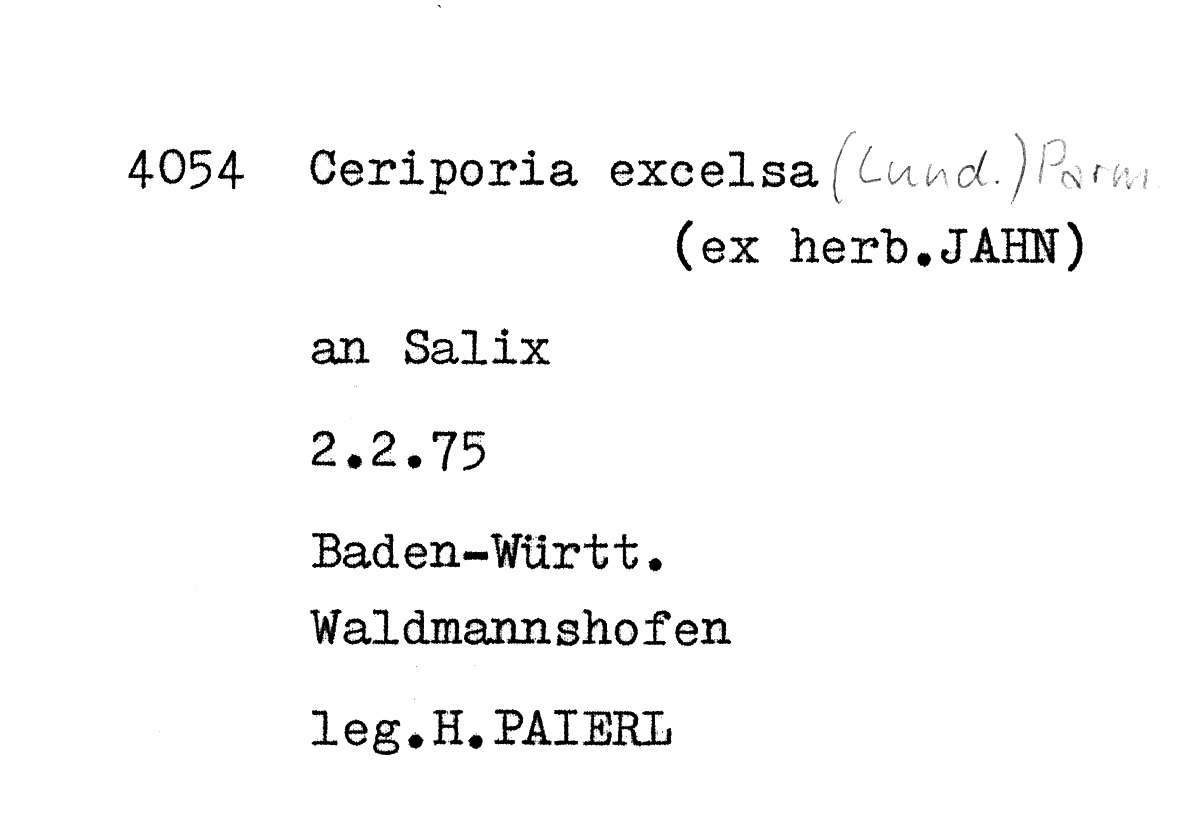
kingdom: Fungi
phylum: Basidiomycota
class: Agaricomycetes
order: Polyporales
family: Irpicaceae
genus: Ceriporia
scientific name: Ceriporia excelsa
